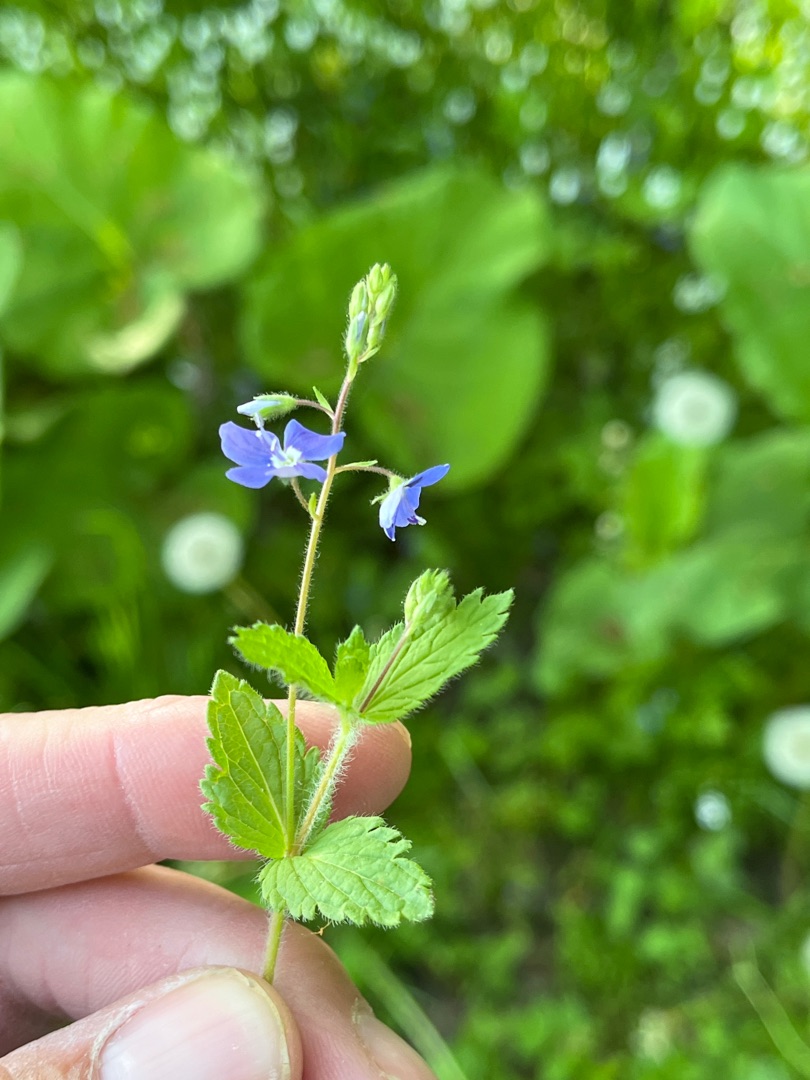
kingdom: Plantae
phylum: Tracheophyta
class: Magnoliopsida
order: Lamiales
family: Plantaginaceae
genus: Veronica
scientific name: Veronica chamaedrys
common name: Tveskægget ærenpris
